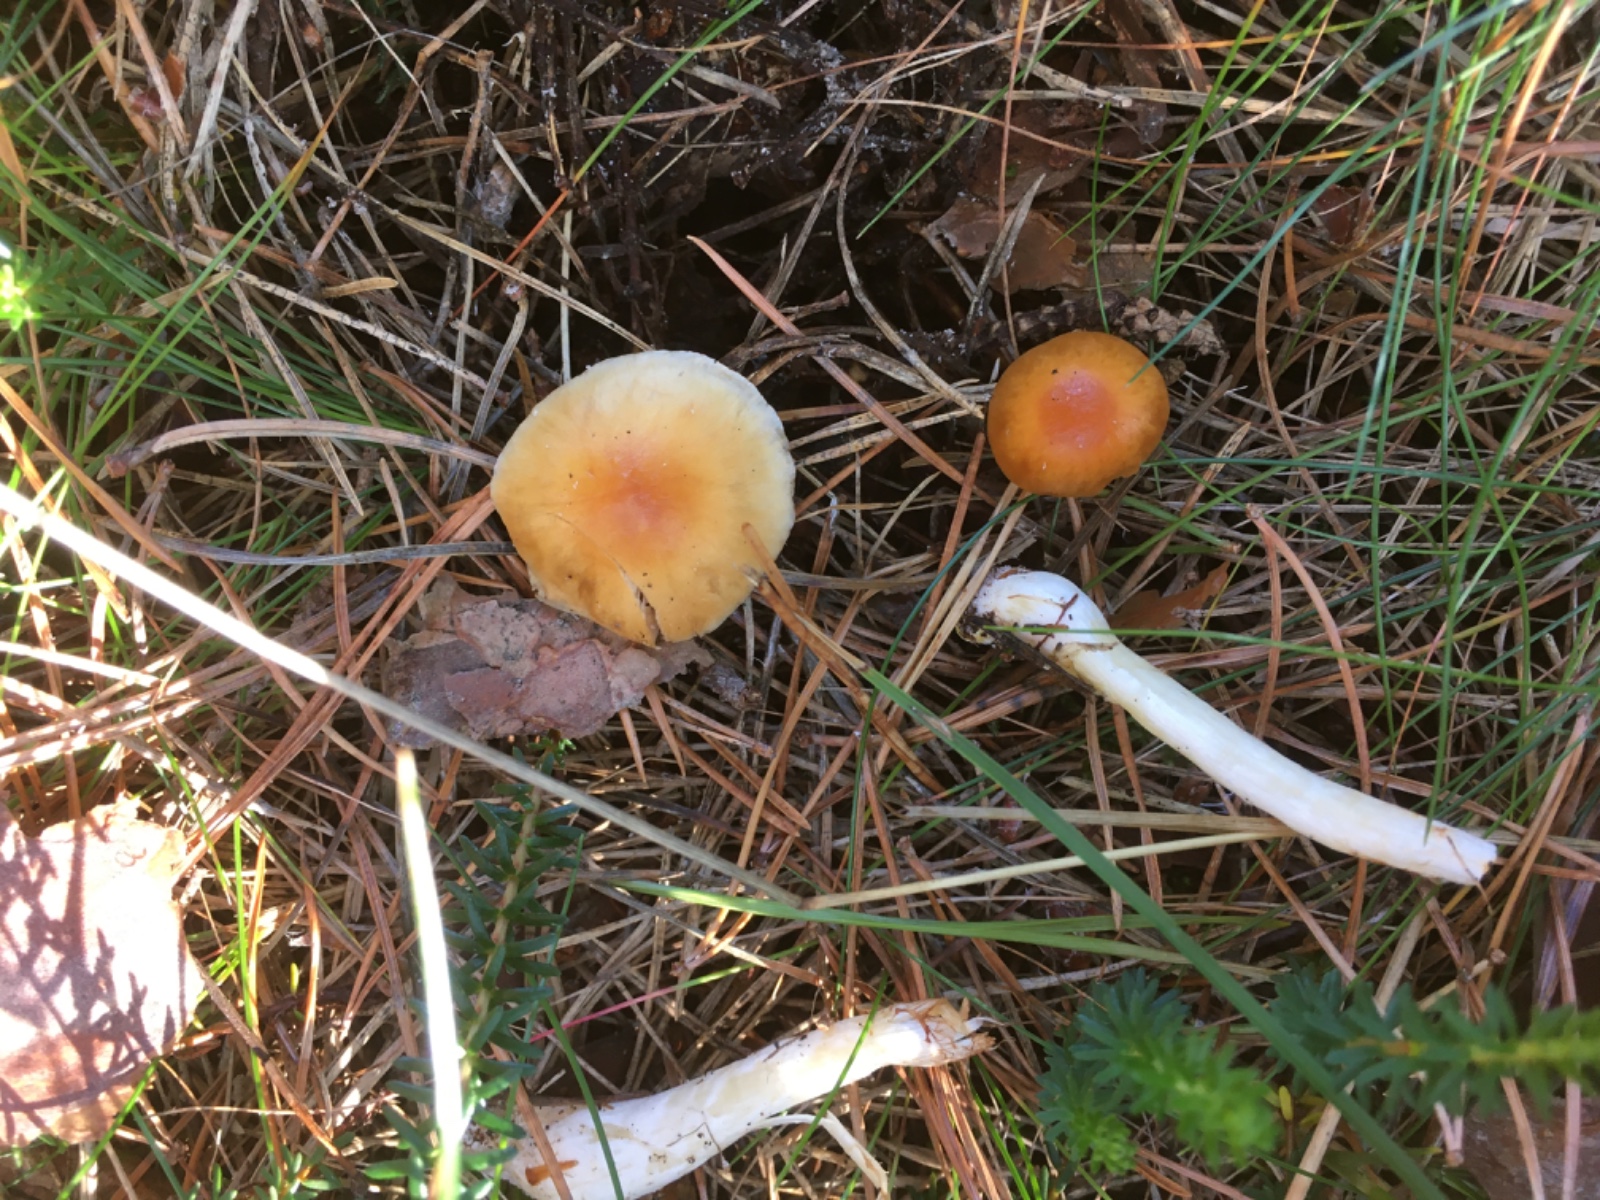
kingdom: Fungi
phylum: Basidiomycota
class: Agaricomycetes
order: Agaricales
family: Cortinariaceae
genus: Cortinarius
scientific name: Cortinarius
